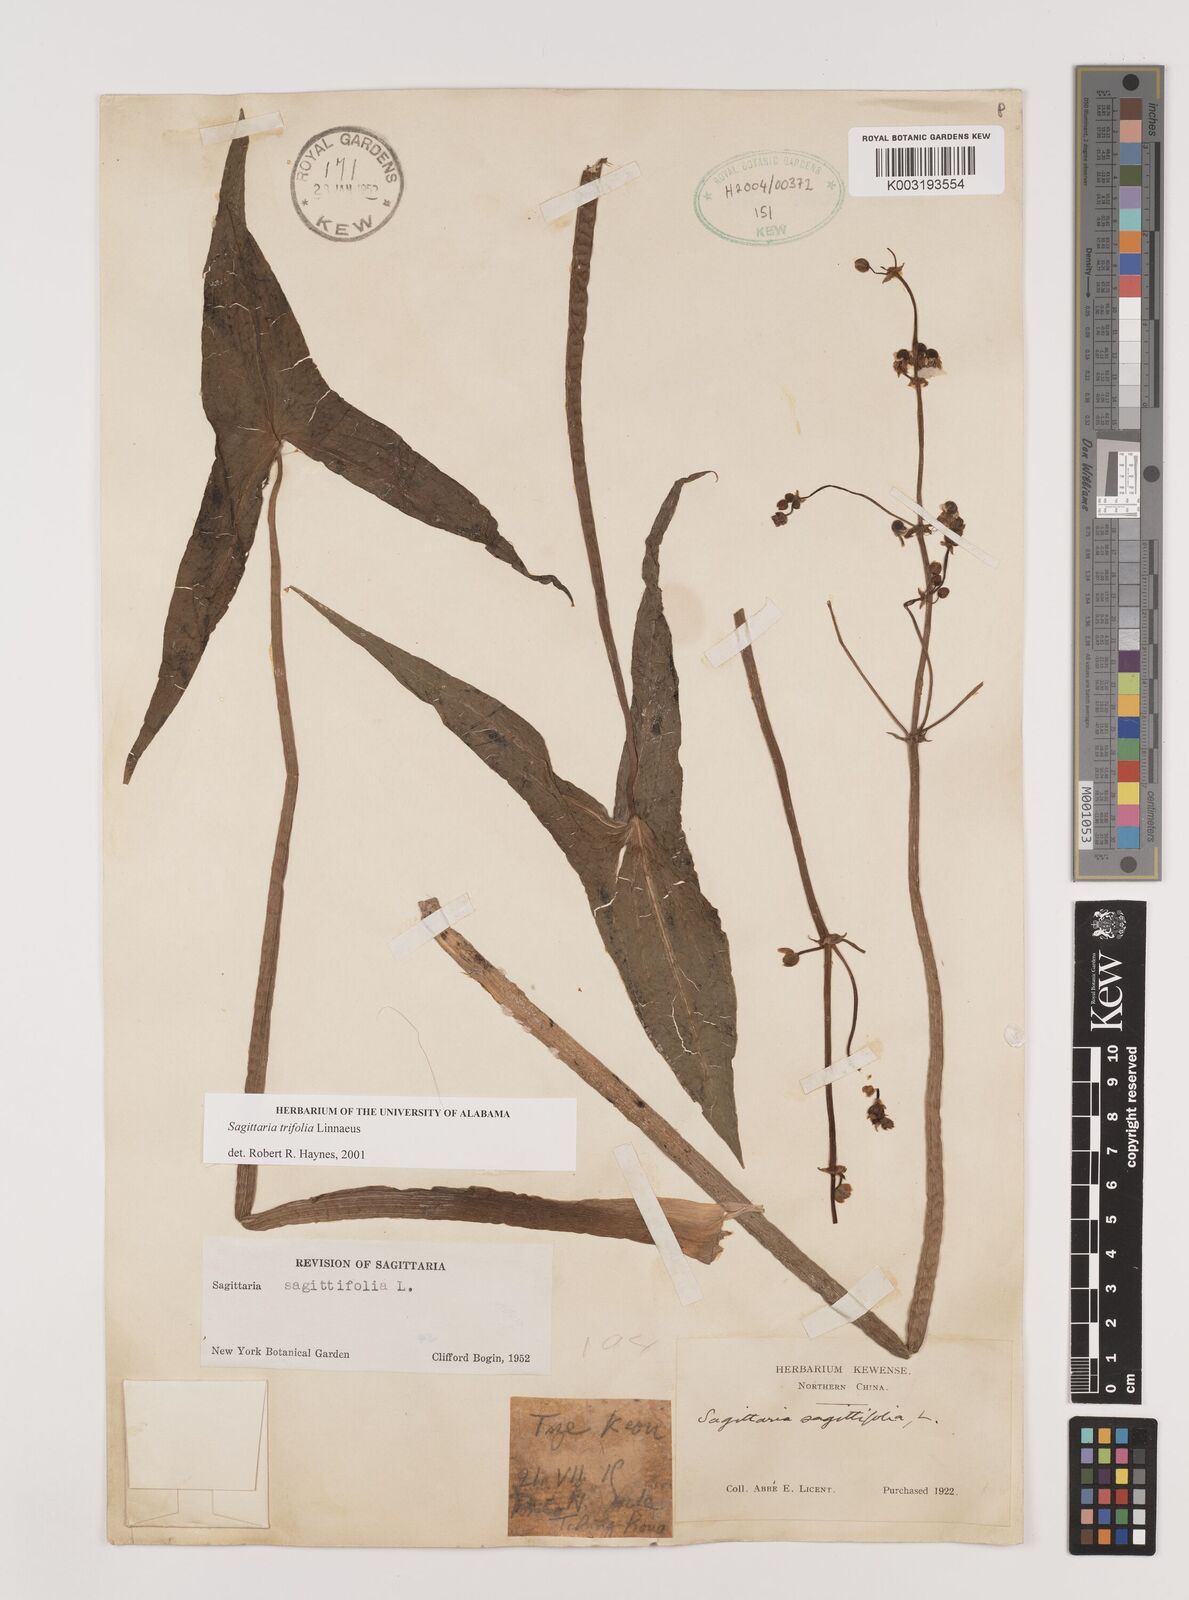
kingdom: Plantae
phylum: Tracheophyta
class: Liliopsida
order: Alismatales
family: Alismataceae
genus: Sagittaria
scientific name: Sagittaria trifolia
